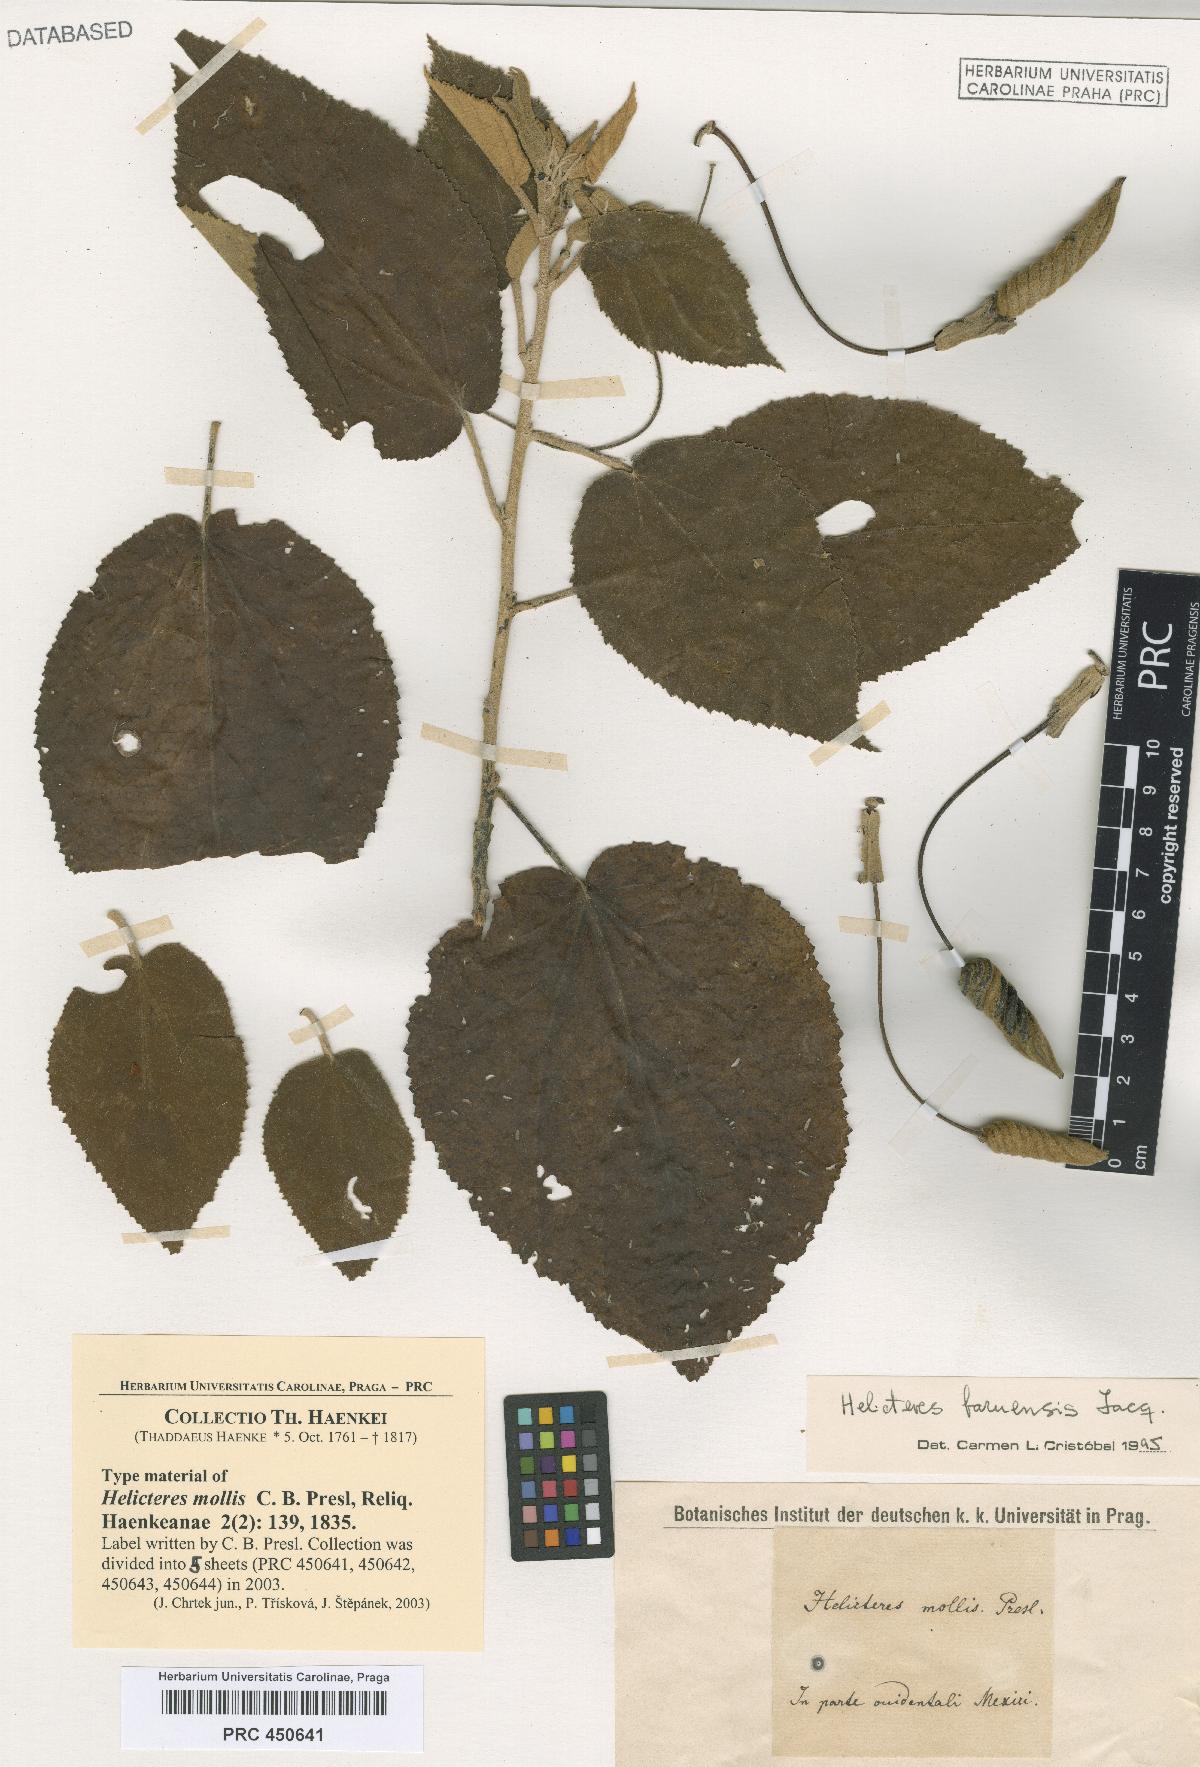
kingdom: Plantae
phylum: Tracheophyta
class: Magnoliopsida
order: Malvales
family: Malvaceae
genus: Helicteres
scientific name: Helicteres baruensis
